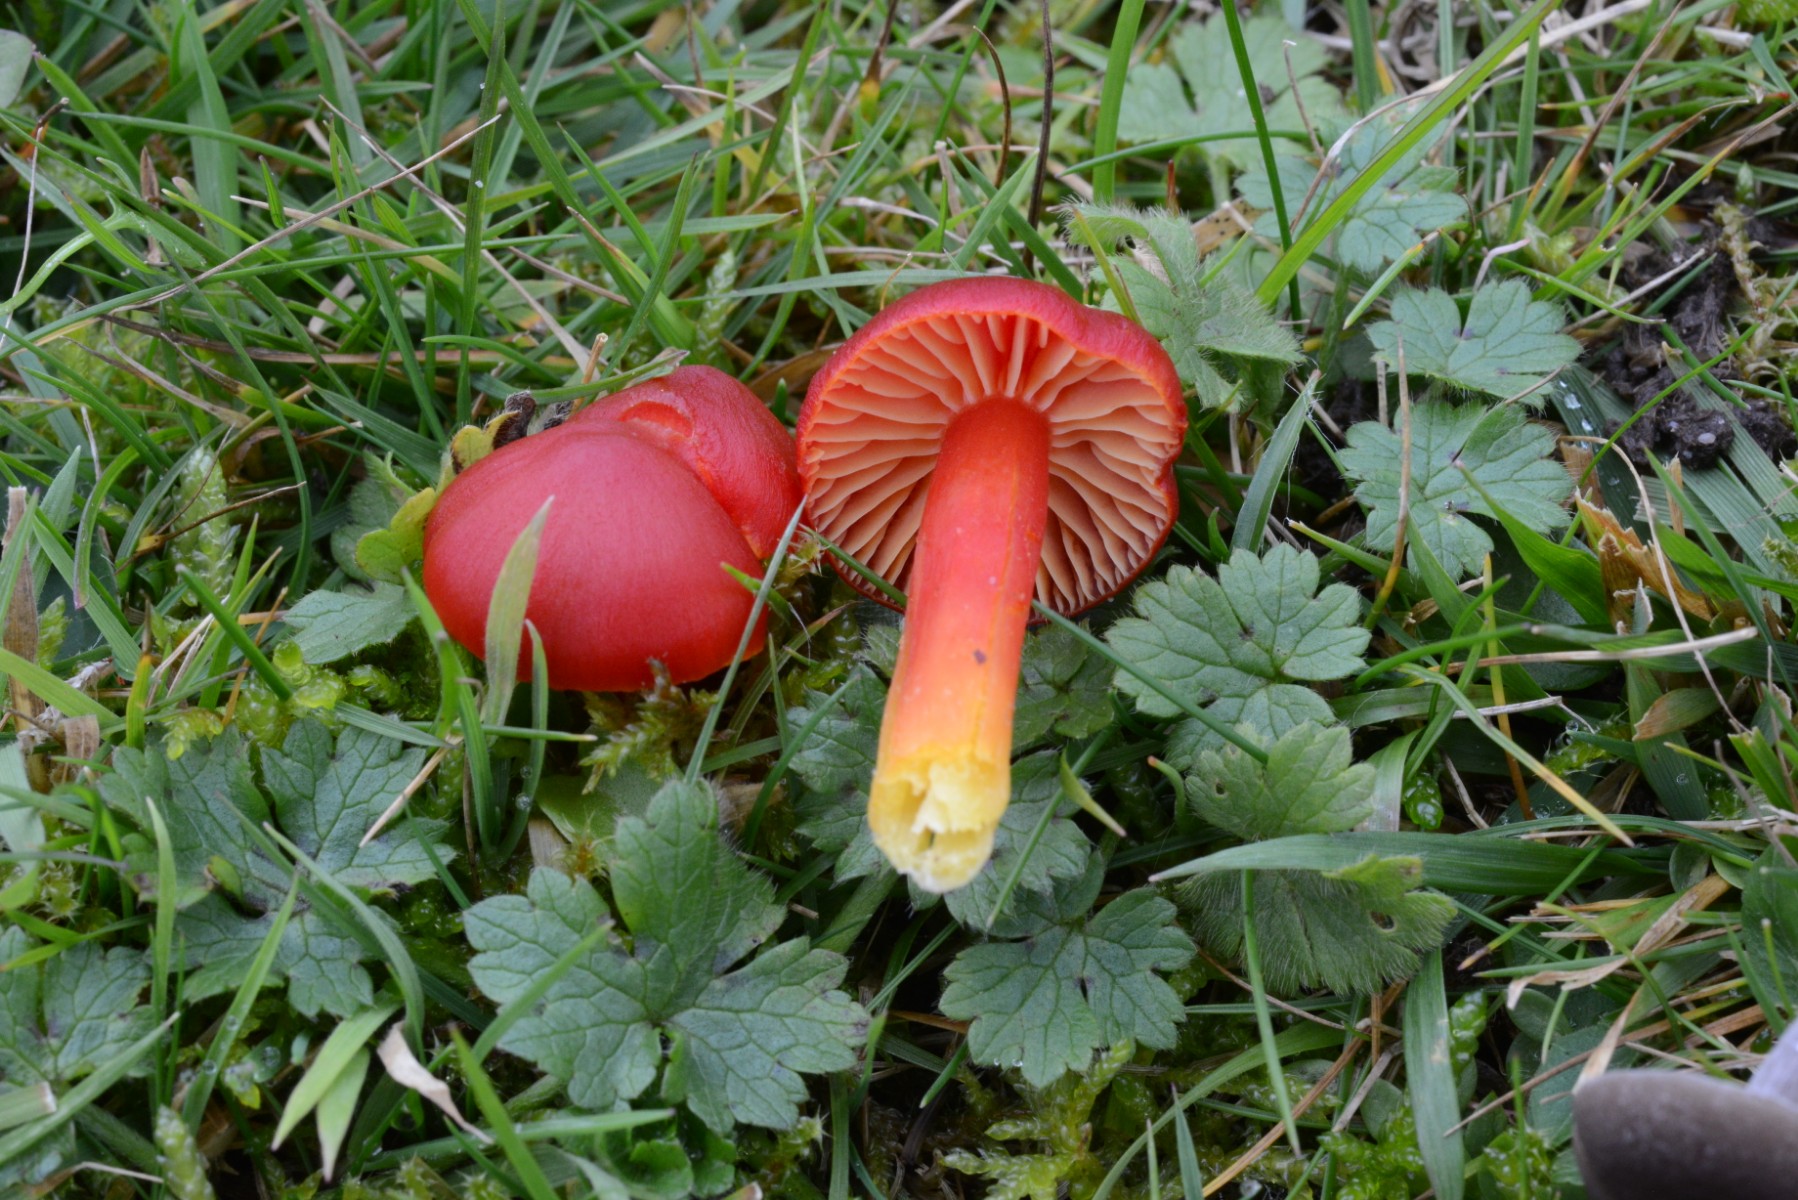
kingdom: Fungi
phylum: Basidiomycota
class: Agaricomycetes
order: Agaricales
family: Hygrophoraceae
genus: Hygrocybe
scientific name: Hygrocybe coccinea
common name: cinnober-vokshat
